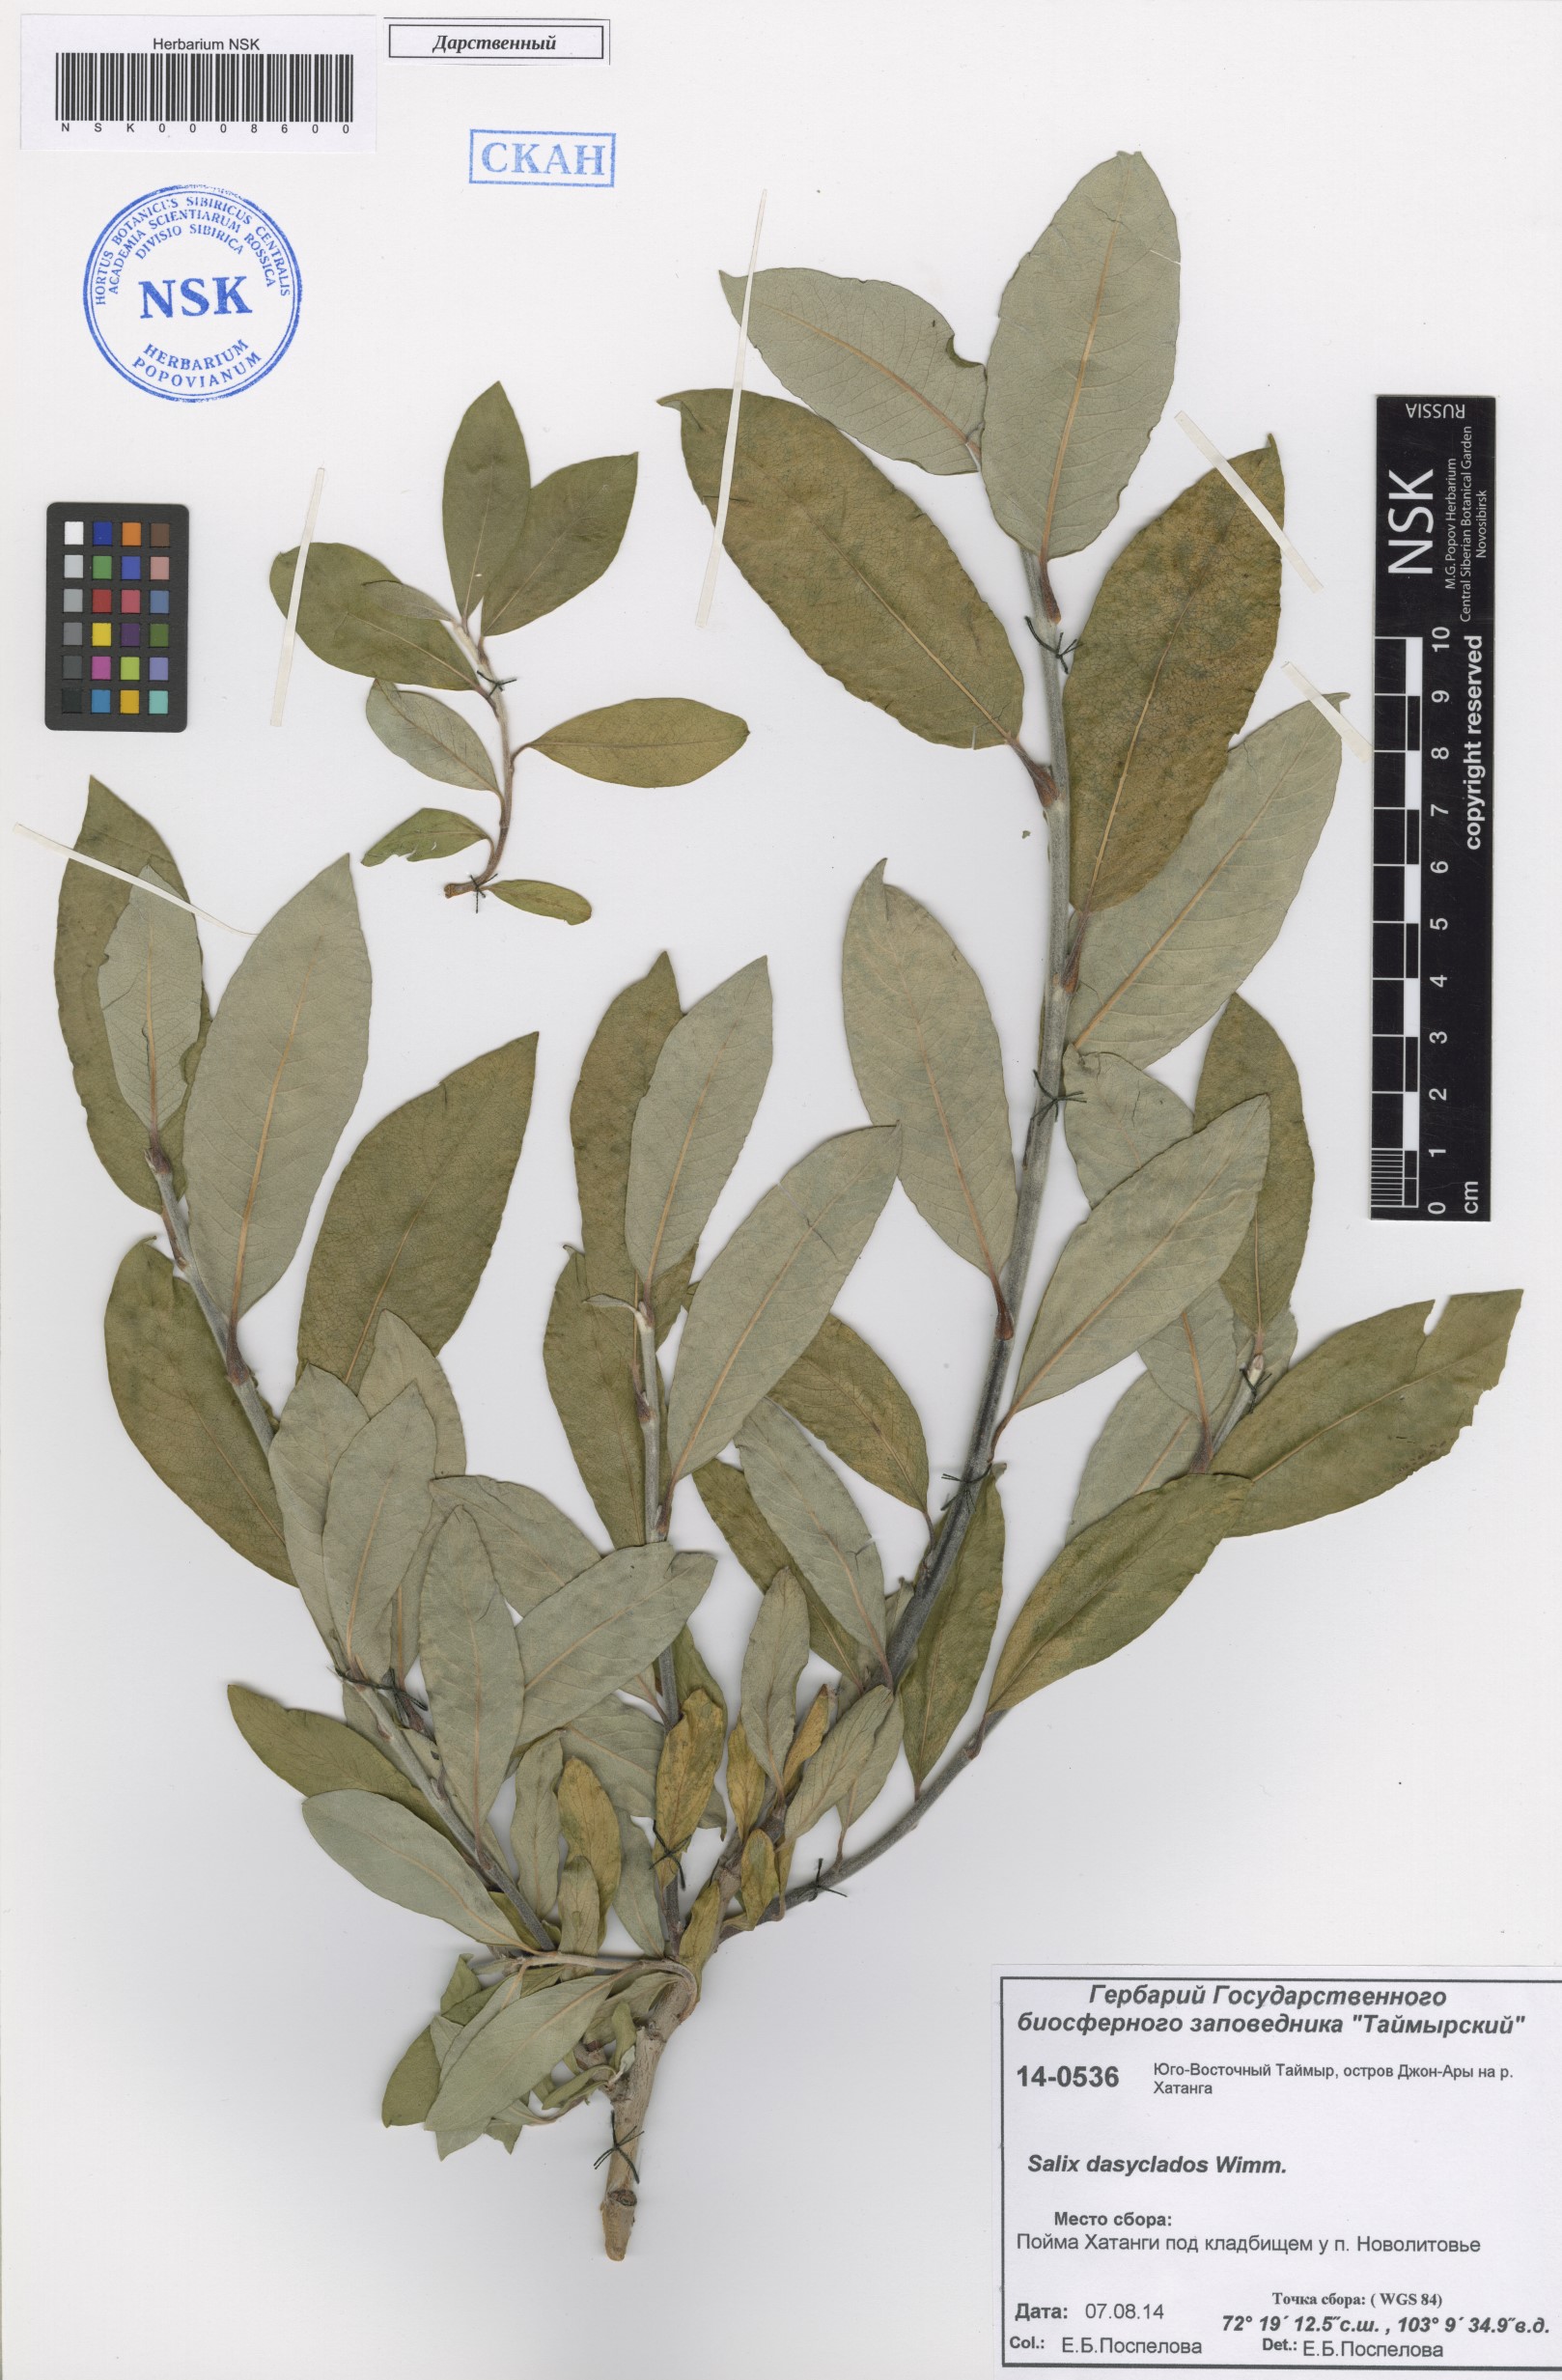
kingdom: Plantae
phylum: Tracheophyta
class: Magnoliopsida
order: Malpighiales
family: Salicaceae
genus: Salix
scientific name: Salix gmelinii
